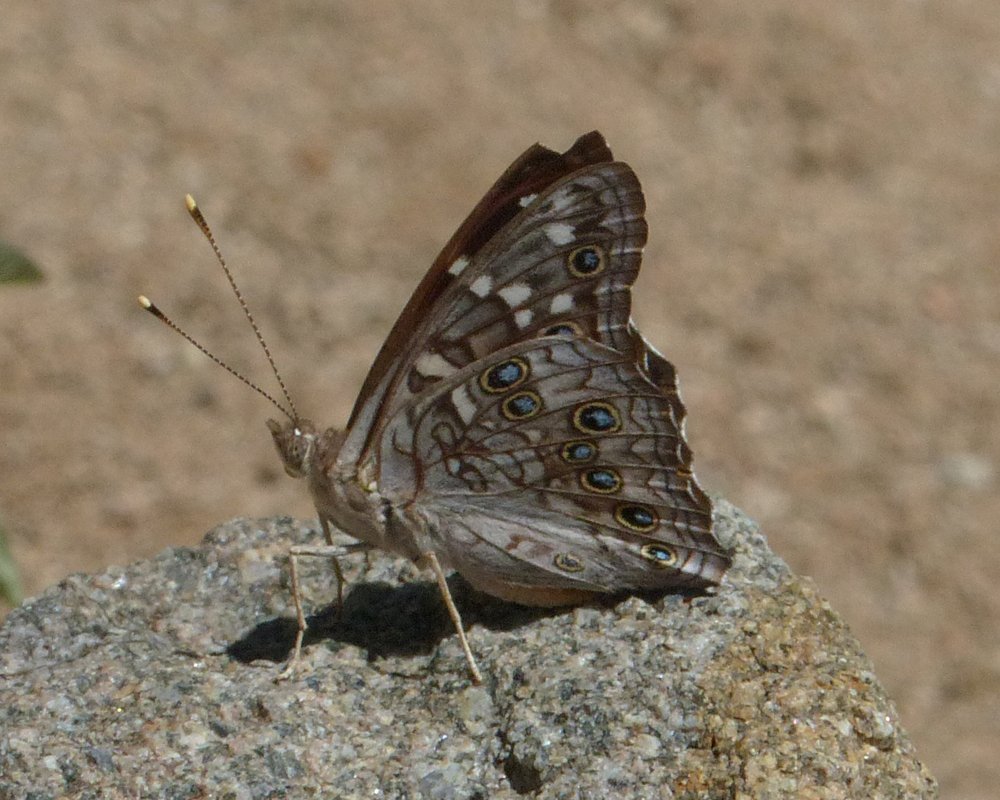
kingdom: Animalia
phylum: Arthropoda
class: Insecta
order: Lepidoptera
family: Nymphalidae
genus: Asterocampa
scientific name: Asterocampa leilia
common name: Empress Leilia
